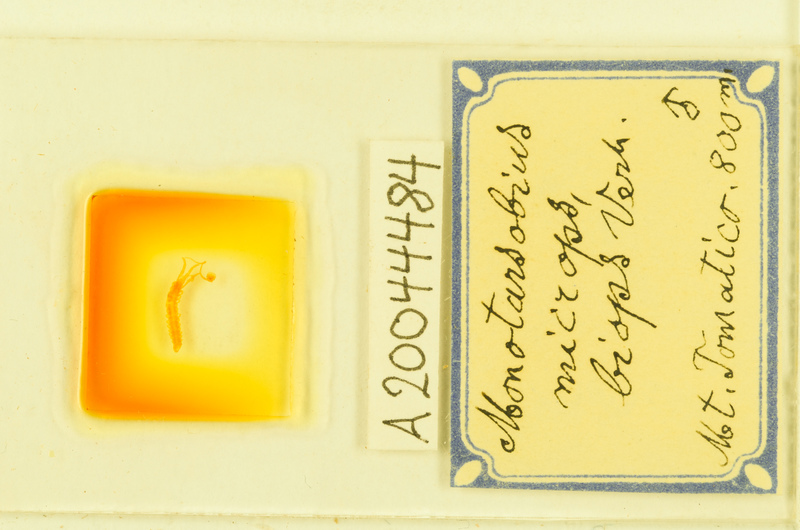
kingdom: Animalia
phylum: Arthropoda
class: Chilopoda
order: Lithobiomorpha
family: Lithobiidae
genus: Monotarsobius
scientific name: Monotarsobius microps
